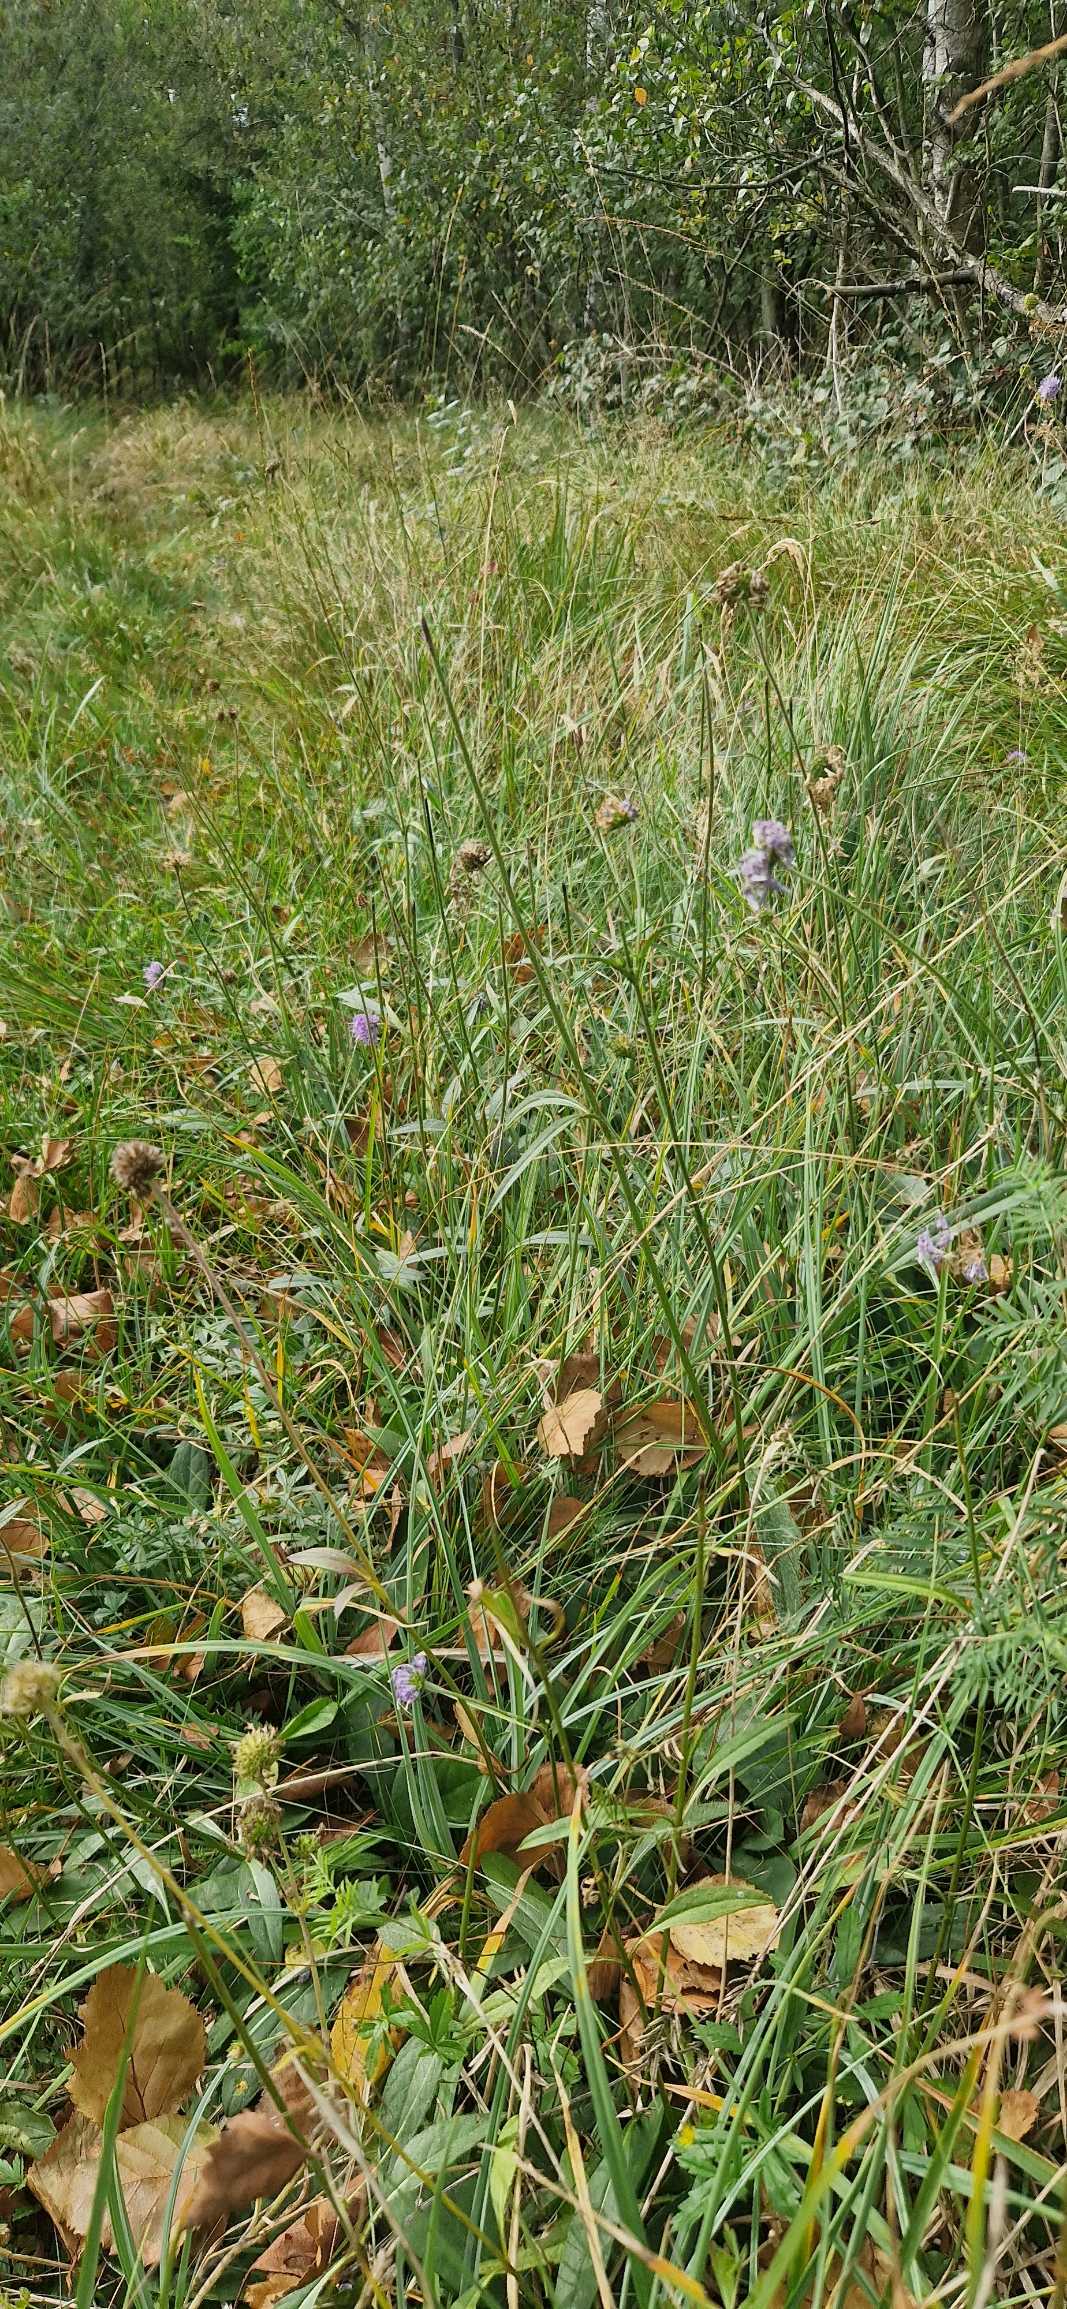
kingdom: Plantae
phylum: Tracheophyta
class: Magnoliopsida
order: Dipsacales
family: Caprifoliaceae
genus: Succisa
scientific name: Succisa pratensis
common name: Djævelsbid
